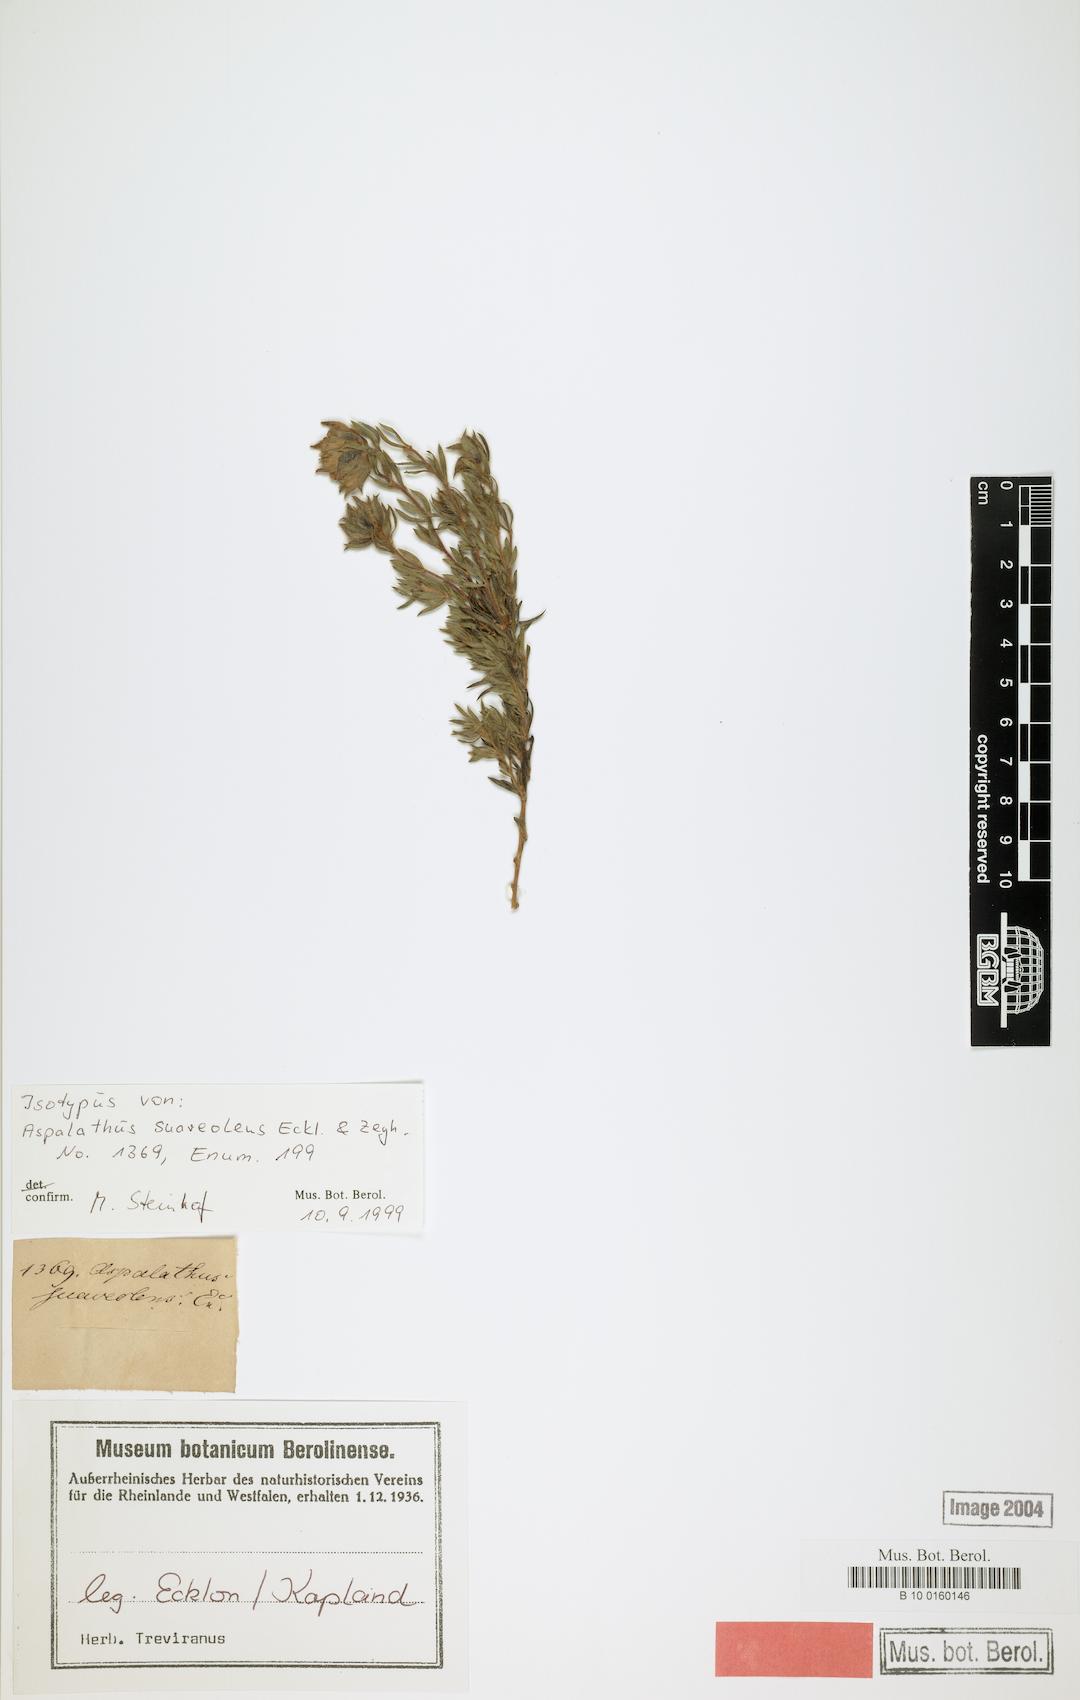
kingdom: Plantae
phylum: Tracheophyta
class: Magnoliopsida
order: Fabales
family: Fabaceae
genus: Aspalathus
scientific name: Aspalathus suaveolens
